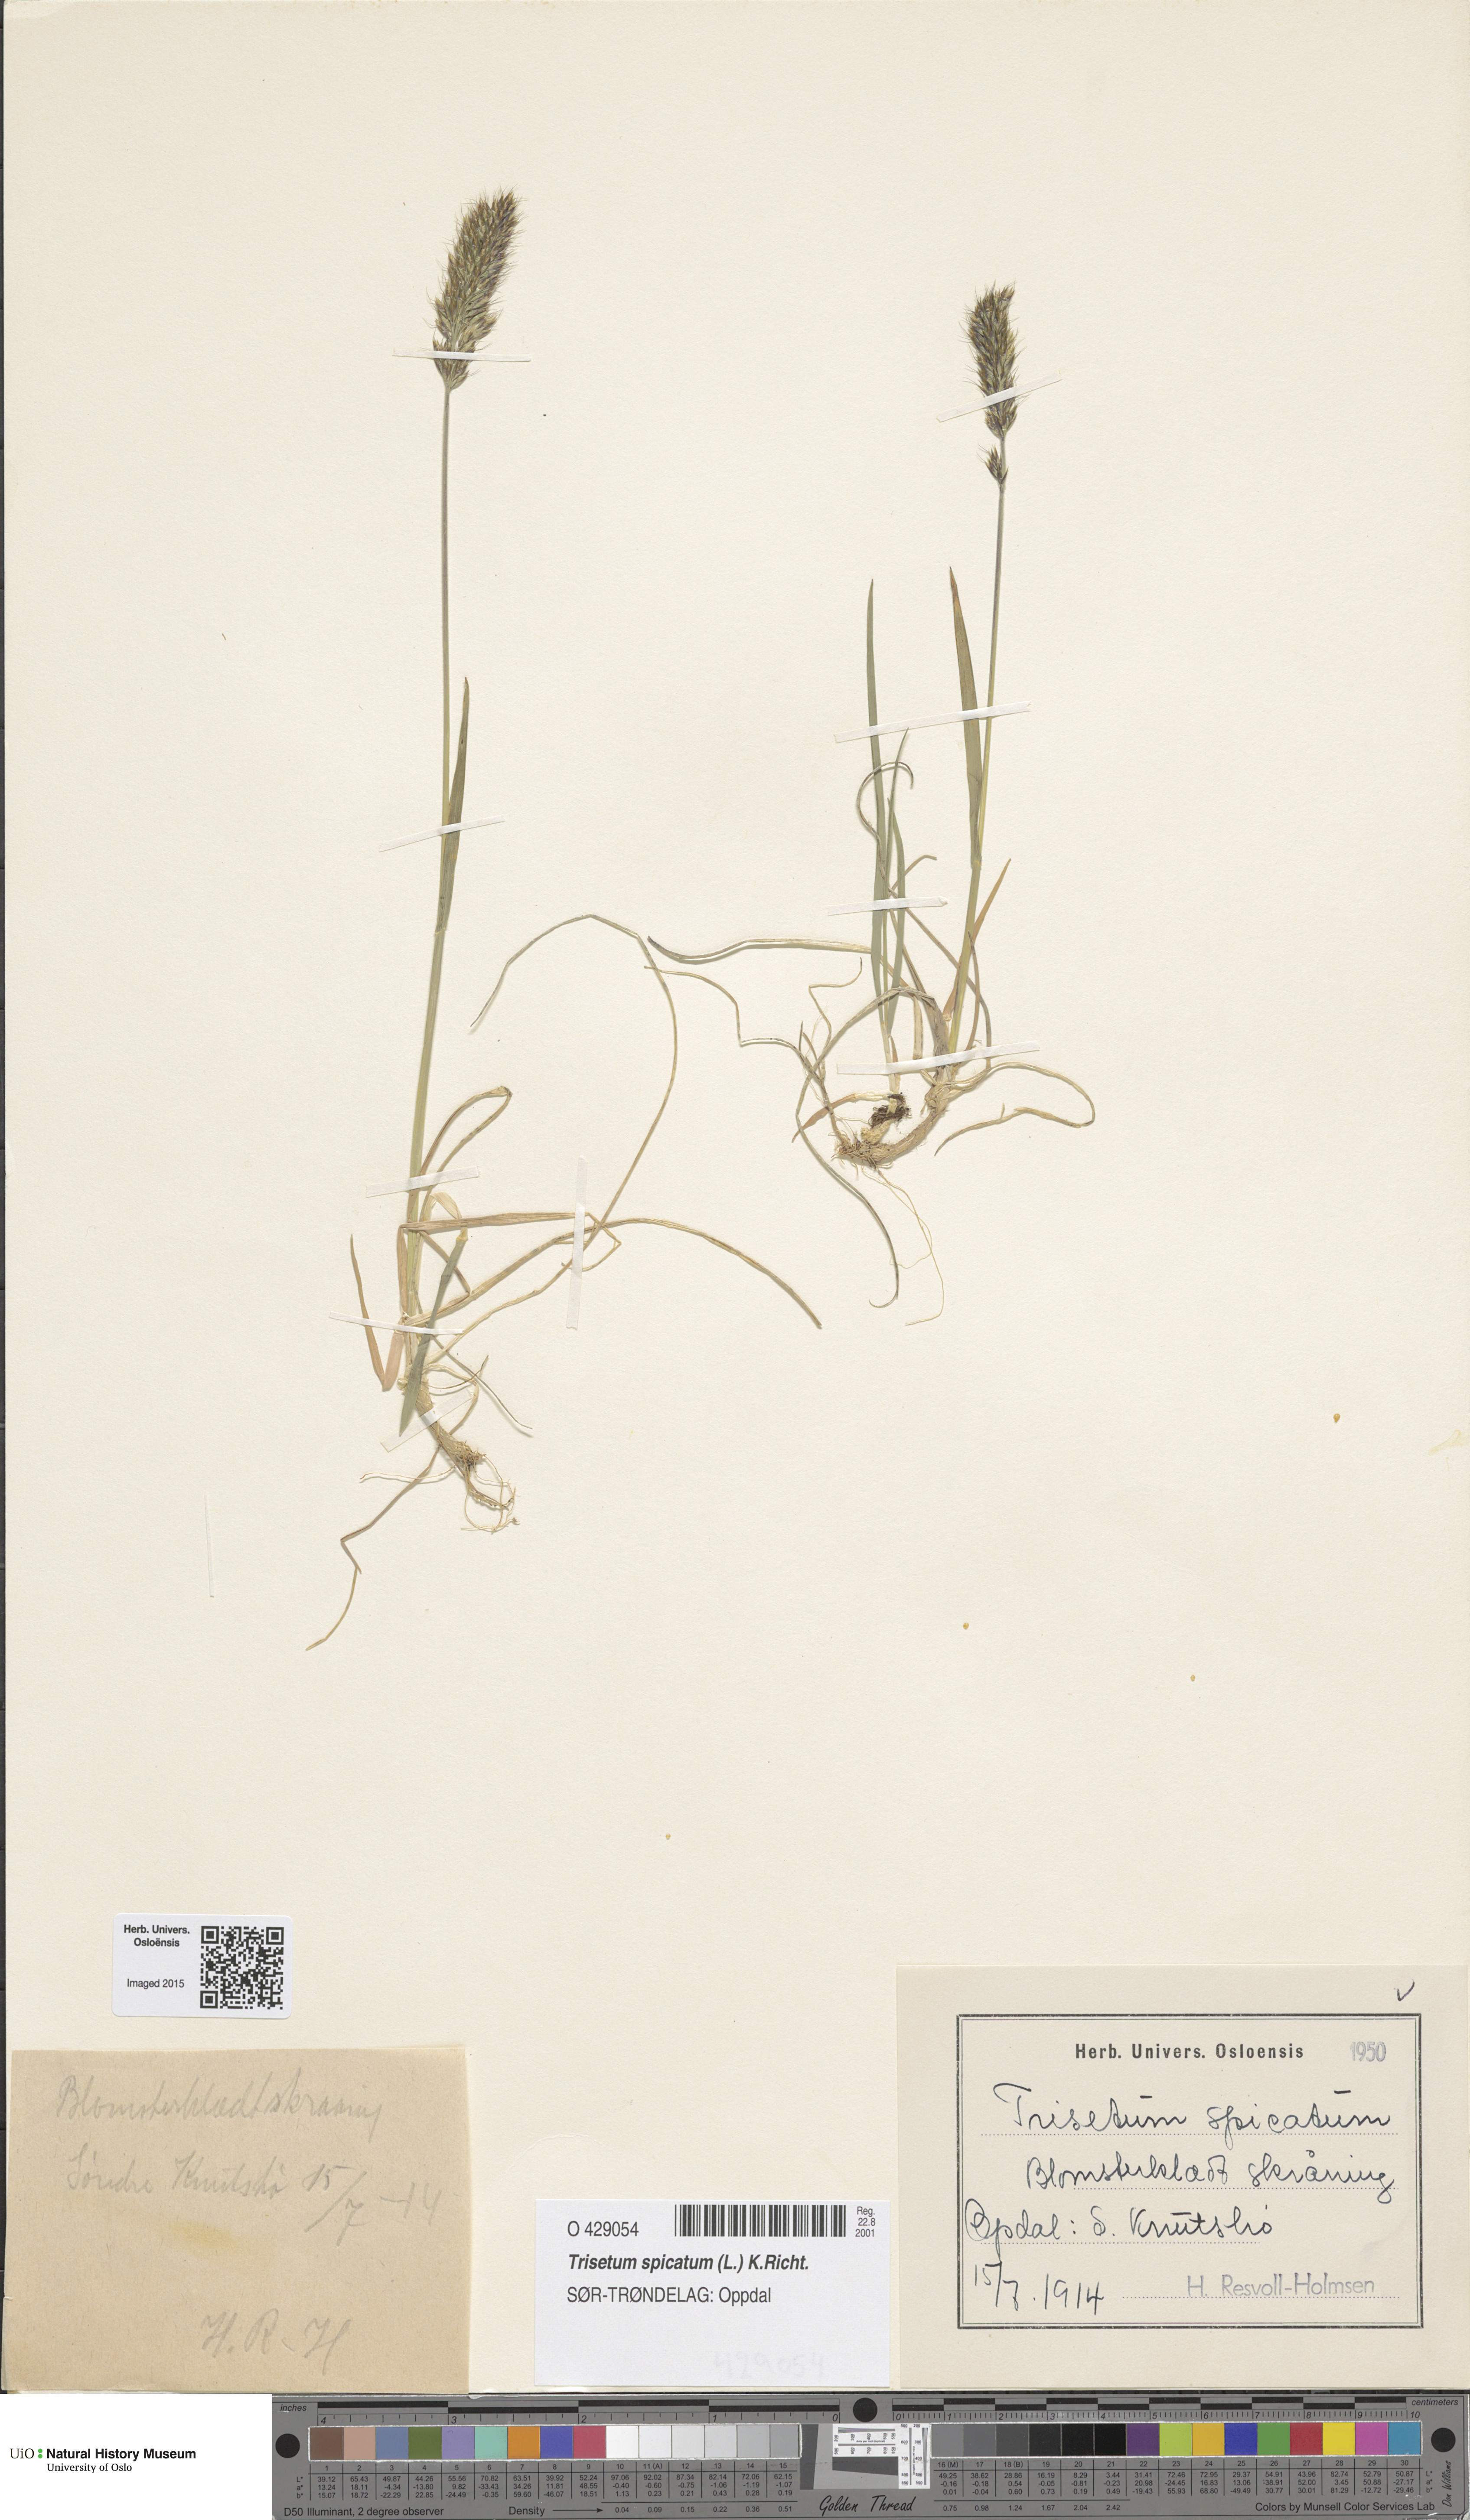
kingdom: Plantae
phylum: Tracheophyta
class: Liliopsida
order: Poales
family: Poaceae
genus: Koeleria
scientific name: Koeleria spicata
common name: Mountain trisetum
